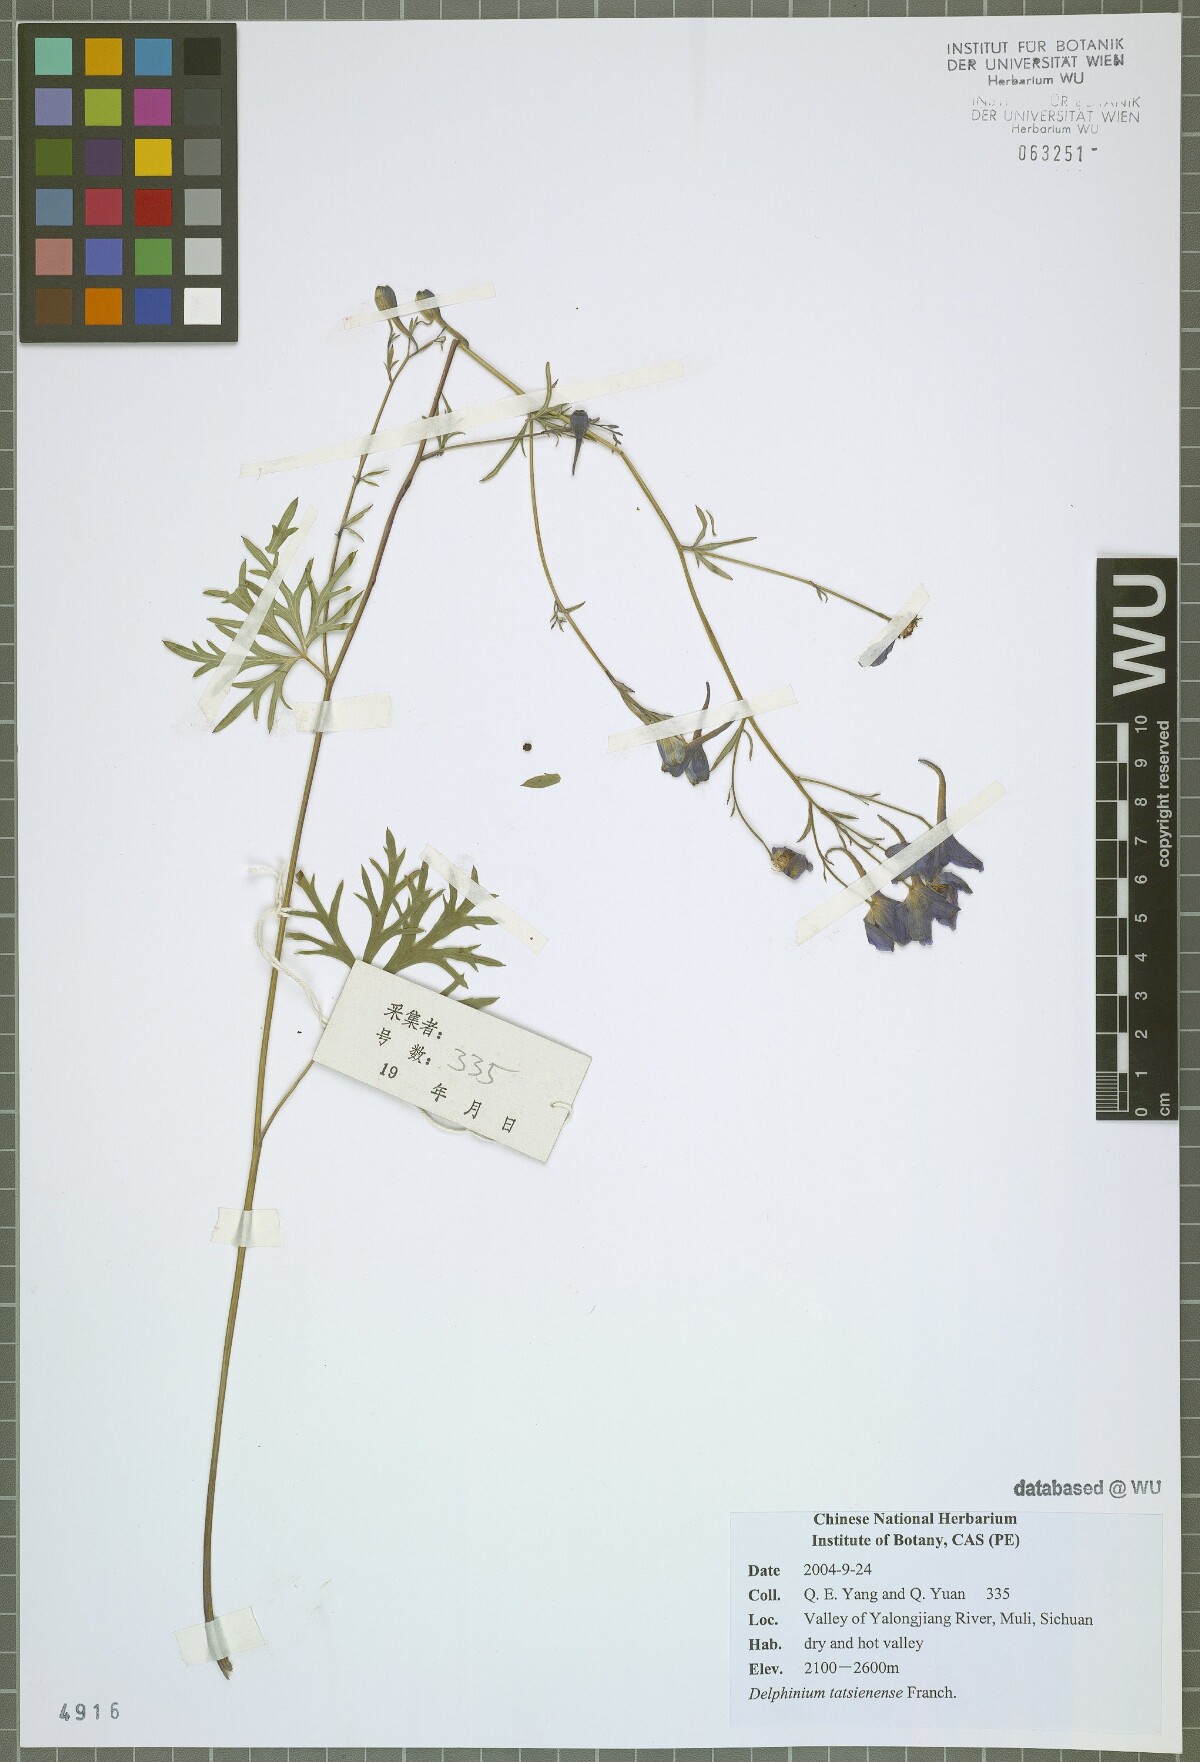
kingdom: Plantae
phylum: Tracheophyta
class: Magnoliopsida
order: Ranunculales
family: Ranunculaceae
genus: Delphinium
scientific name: Delphinium tatsienense
